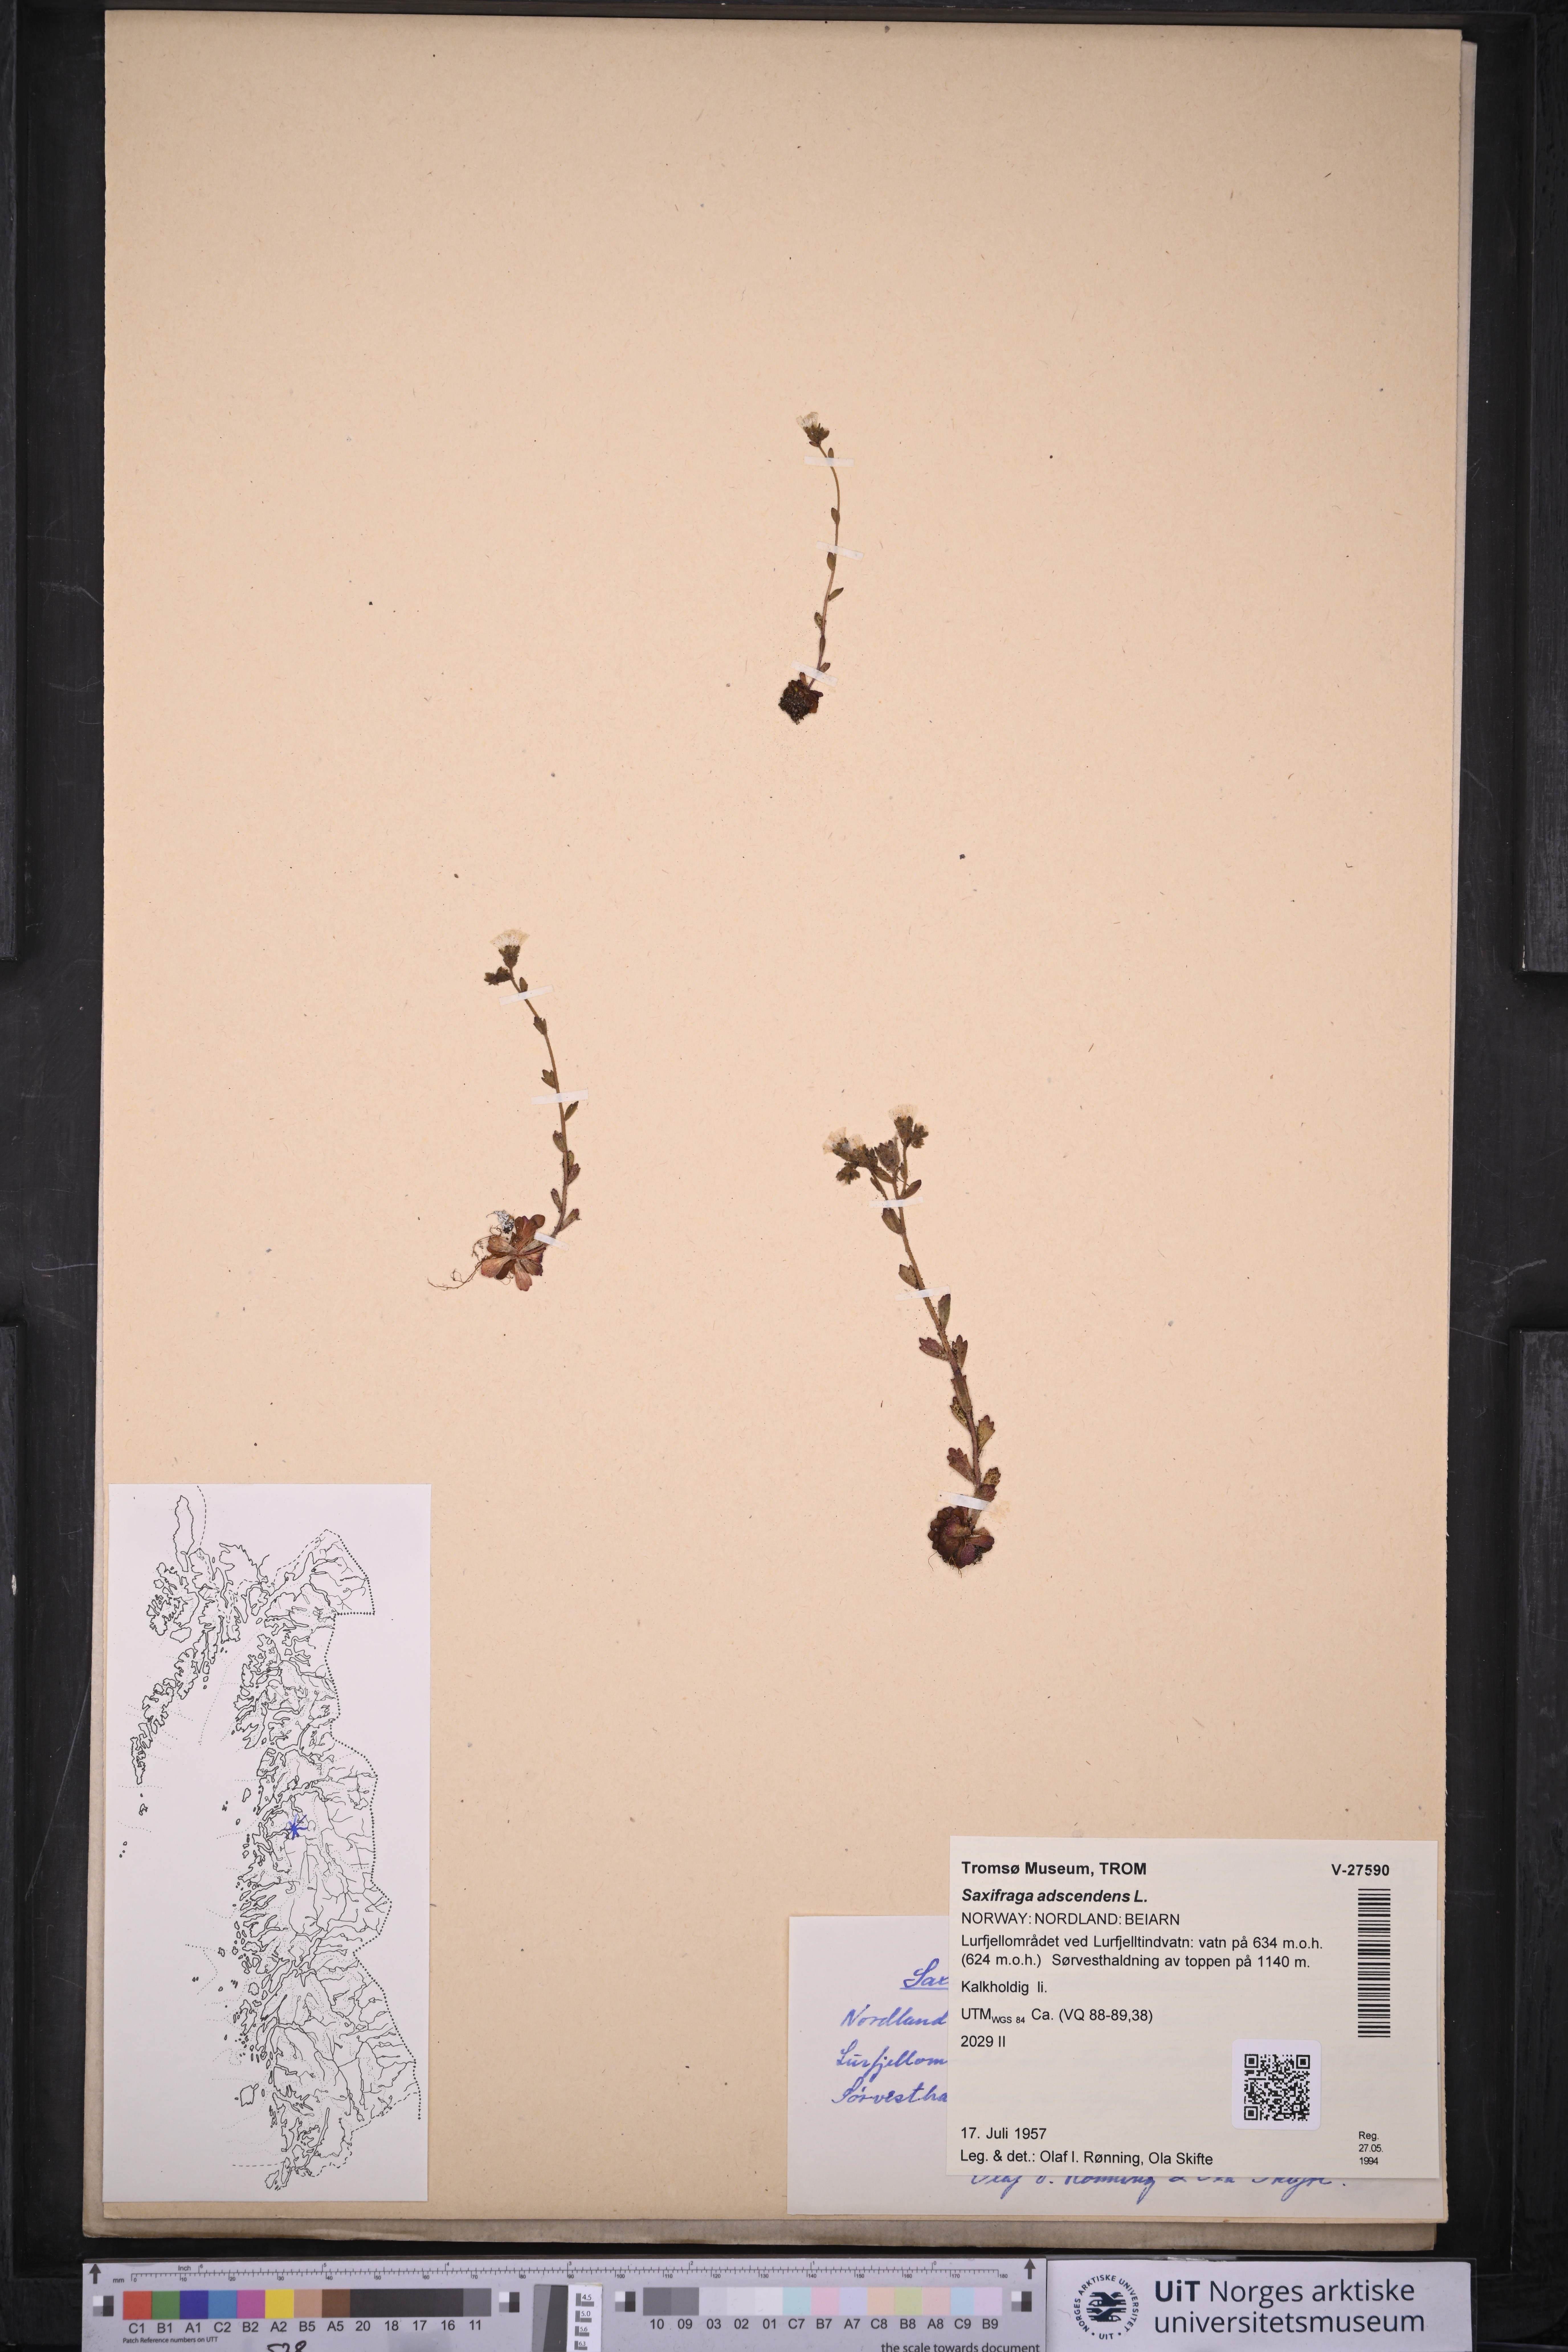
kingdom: Plantae
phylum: Tracheophyta
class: Magnoliopsida
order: Saxifragales
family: Saxifragaceae
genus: Saxifraga
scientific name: Saxifraga adscendens
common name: Ascending saxifrage
